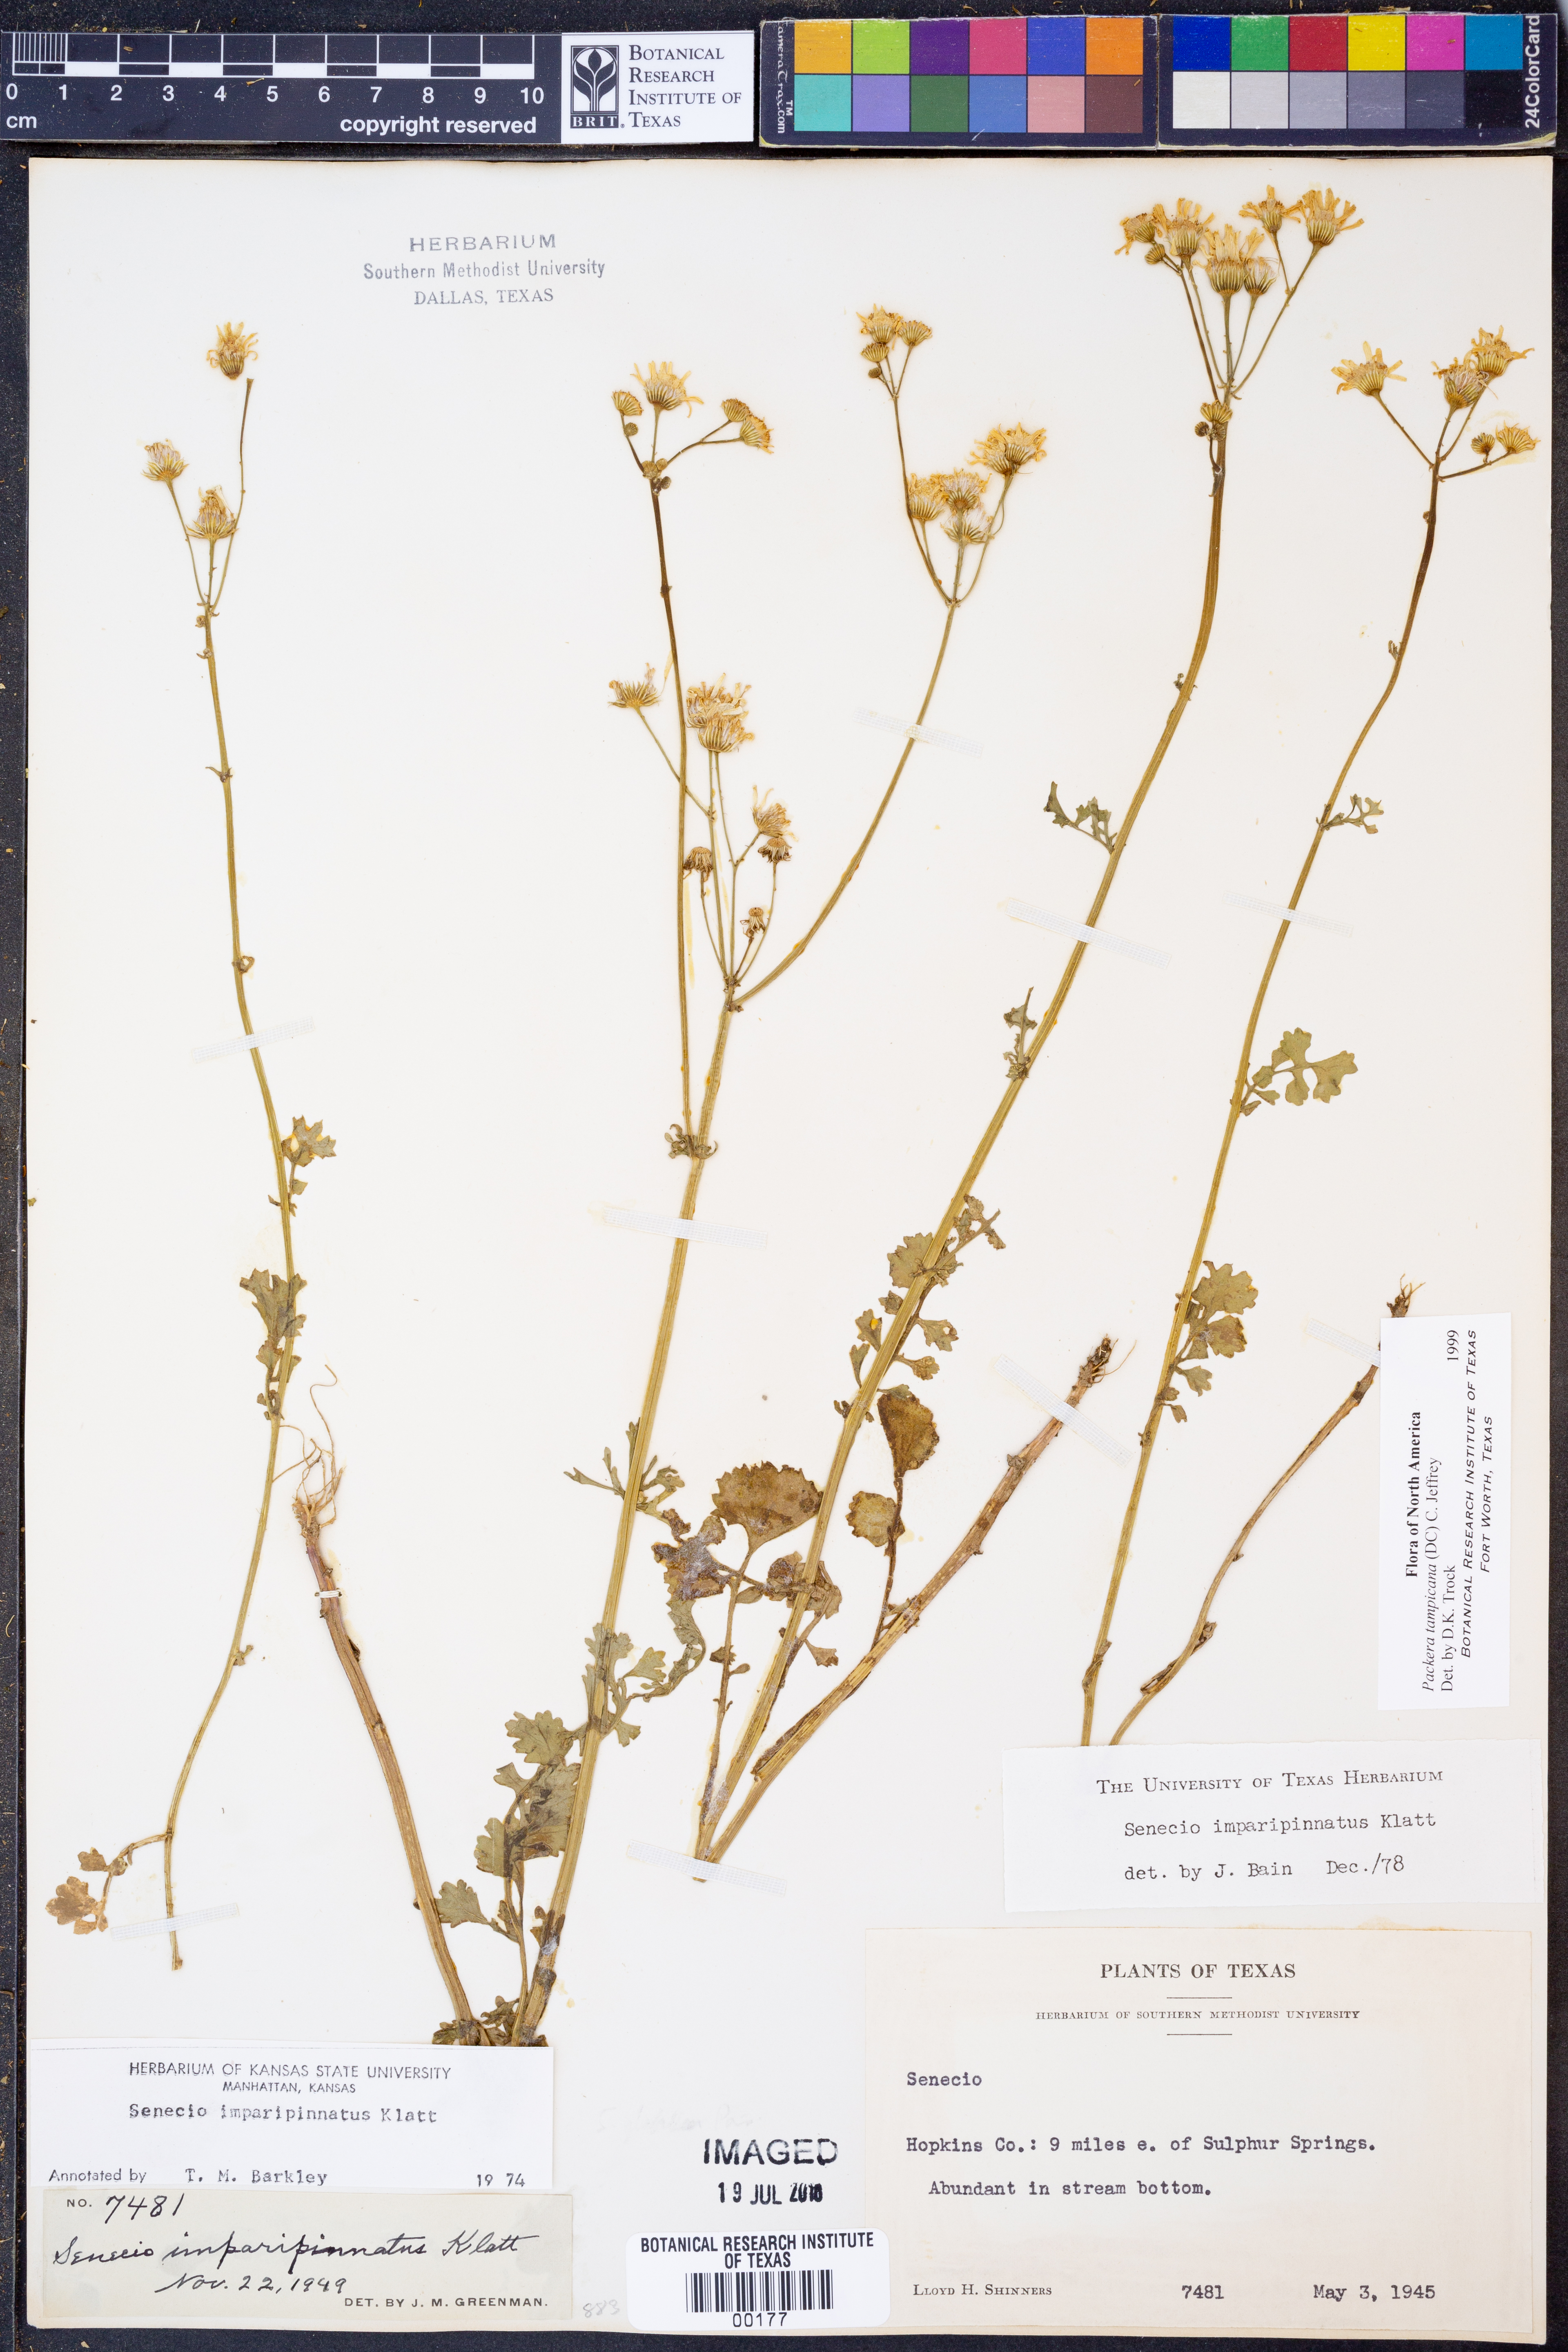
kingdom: Plantae
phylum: Tracheophyta
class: Magnoliopsida
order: Asterales
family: Asteraceae
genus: Packera
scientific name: Packera tampicana
